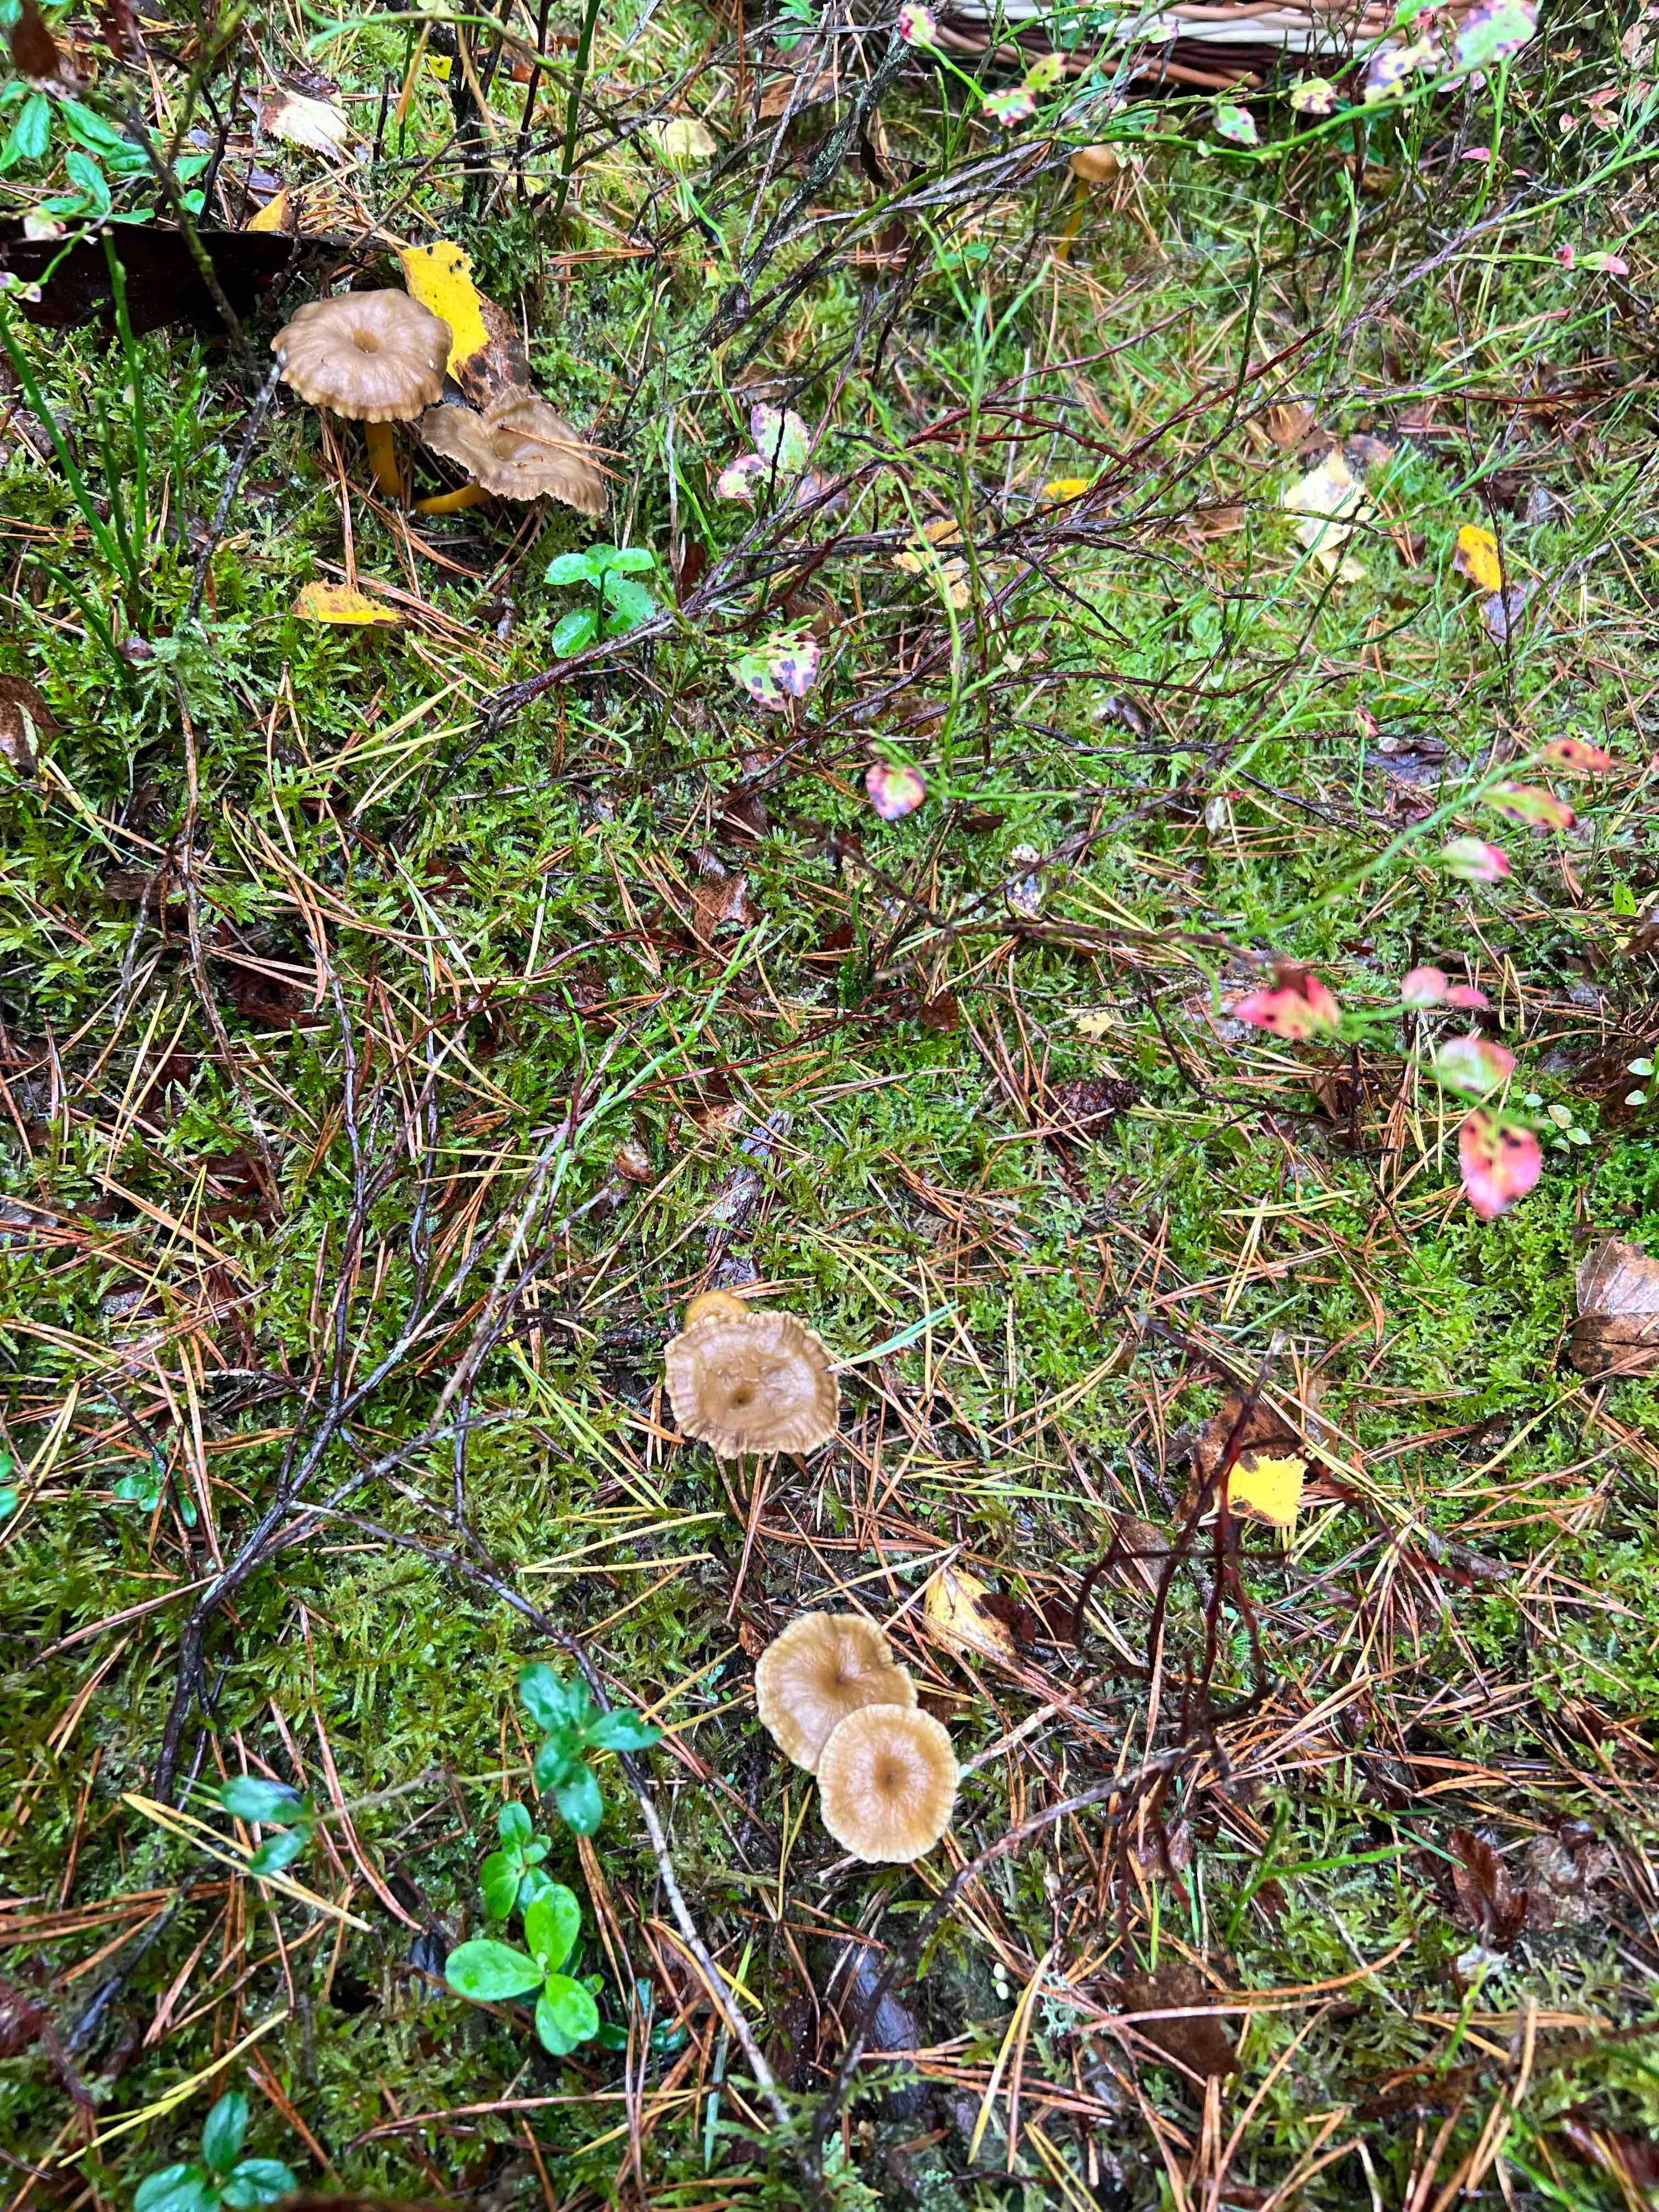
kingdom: Fungi
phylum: Basidiomycota
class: Agaricomycetes
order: Cantharellales
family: Hydnaceae
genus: Craterellus
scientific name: Craterellus tubaeformis
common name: tragt-kantarel
